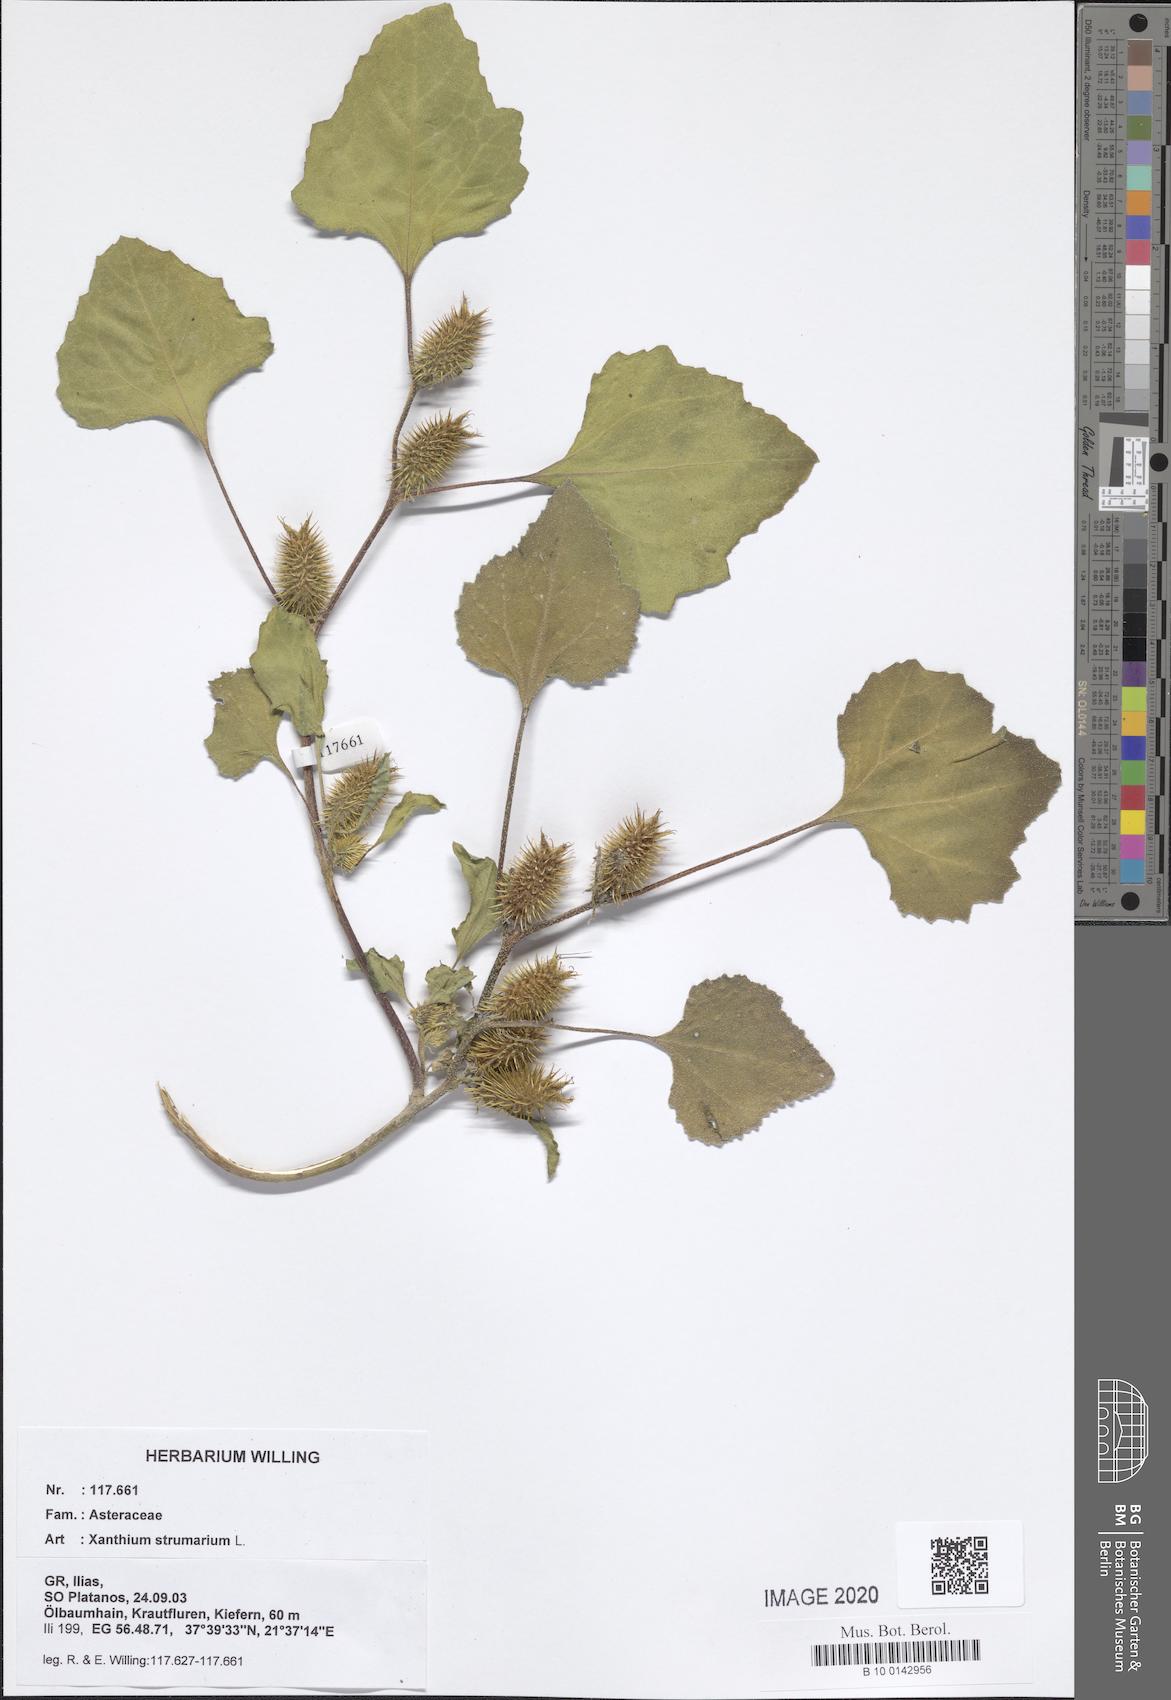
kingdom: Plantae
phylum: Tracheophyta
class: Magnoliopsida
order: Asterales
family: Asteraceae
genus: Xanthium
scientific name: Xanthium strumarium
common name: Rough cocklebur
